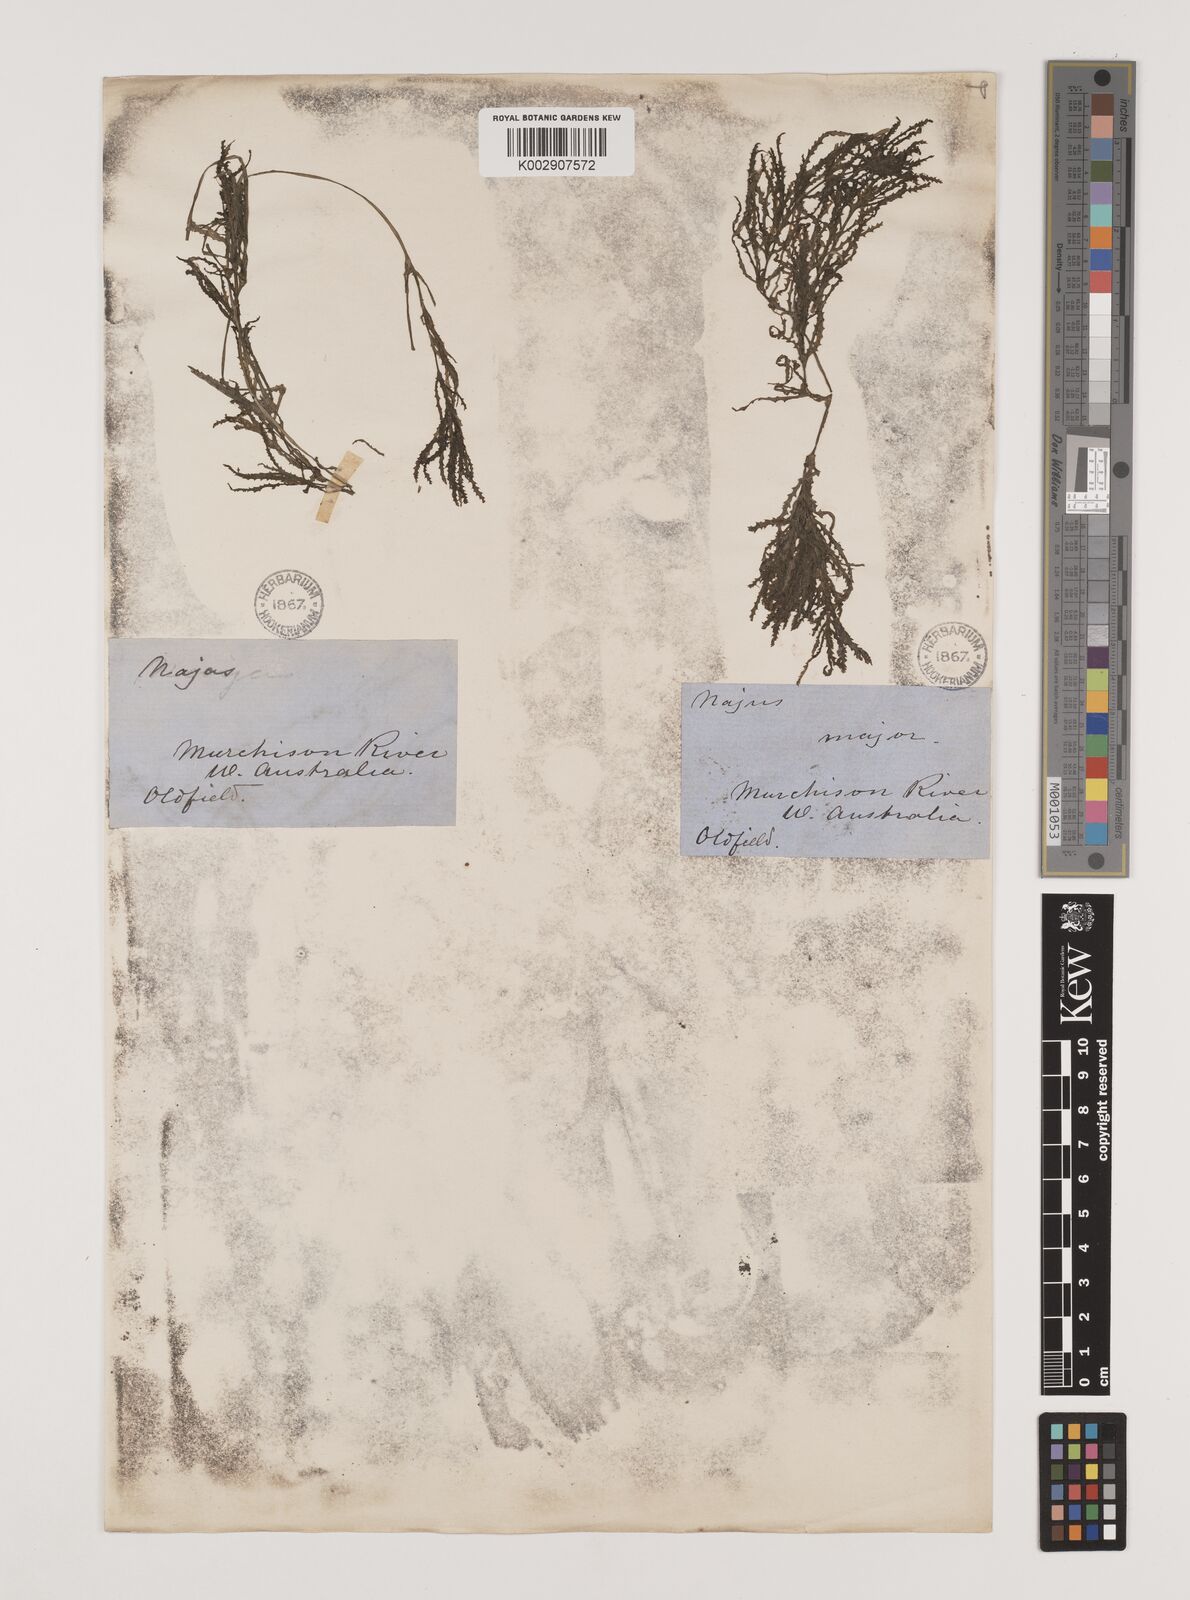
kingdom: Plantae
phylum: Tracheophyta
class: Liliopsida
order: Alismatales
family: Hydrocharitaceae
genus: Najas
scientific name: Najas marina
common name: Holly-leaved naiad
